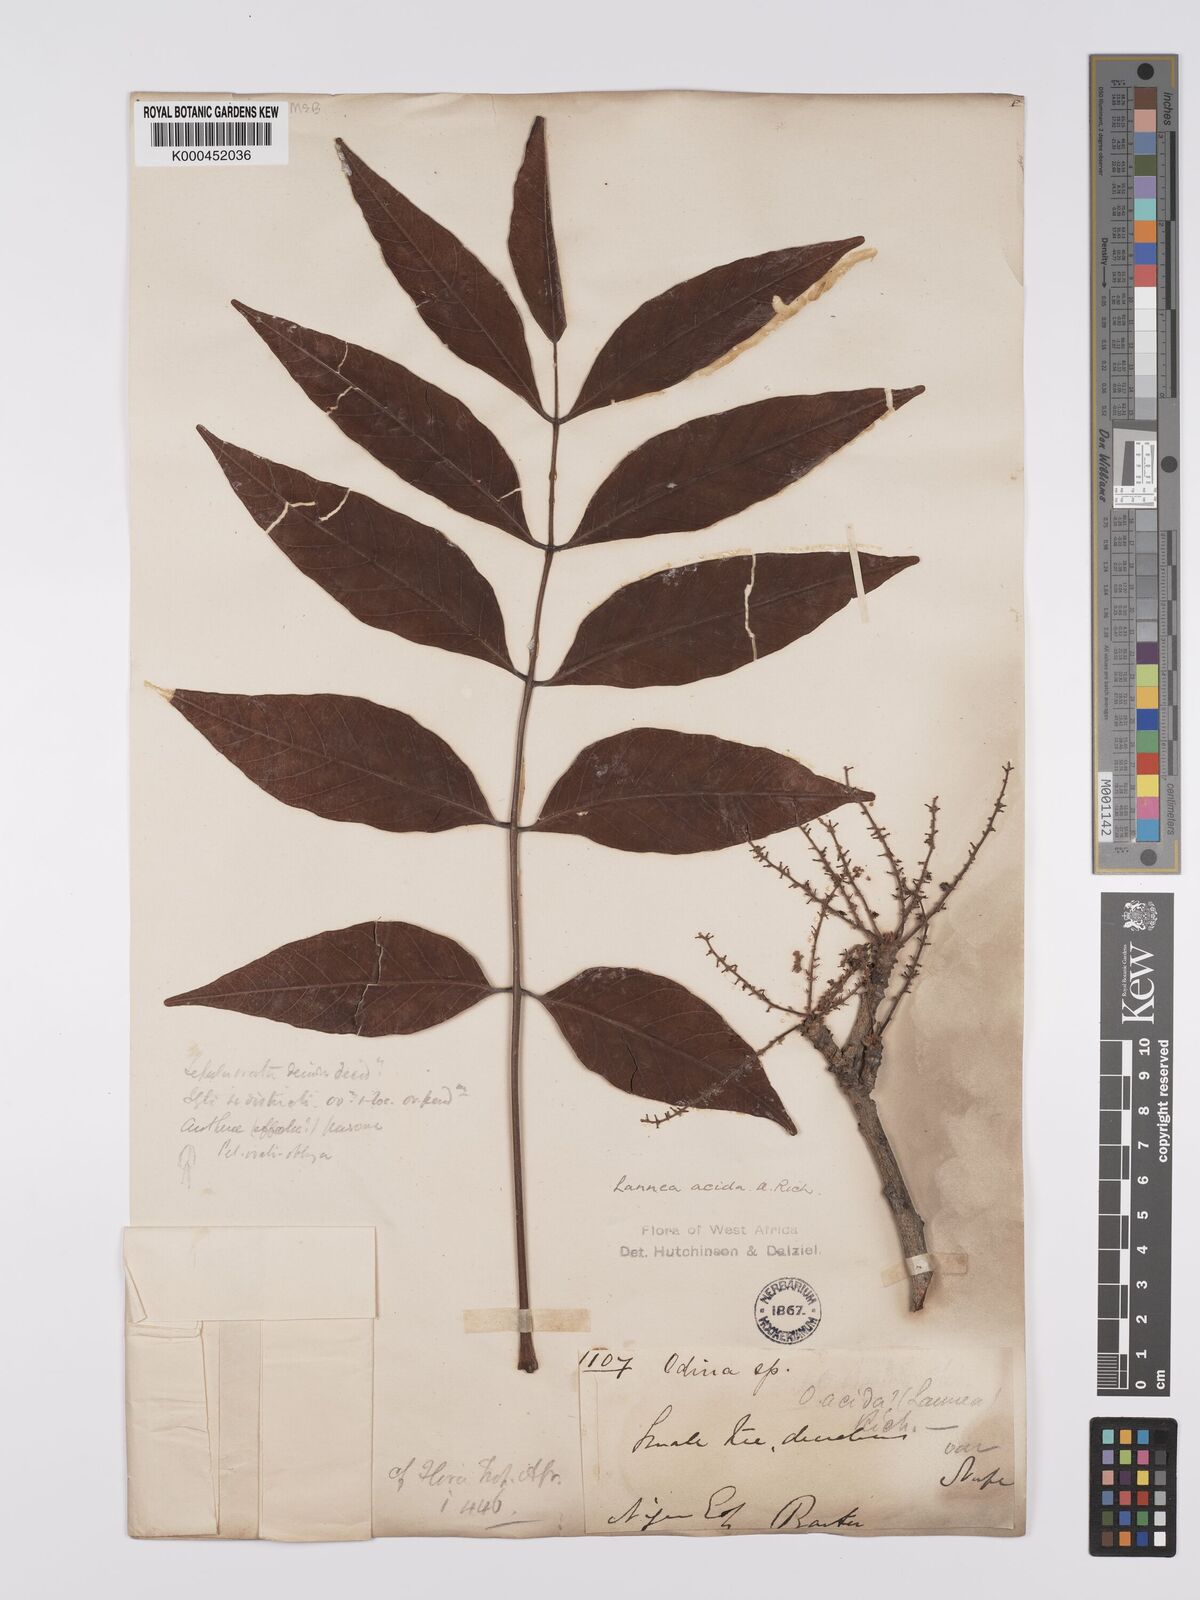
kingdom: Plantae
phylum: Tracheophyta
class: Magnoliopsida
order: Sapindales
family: Anacardiaceae
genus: Lannea
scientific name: Lannea acida
